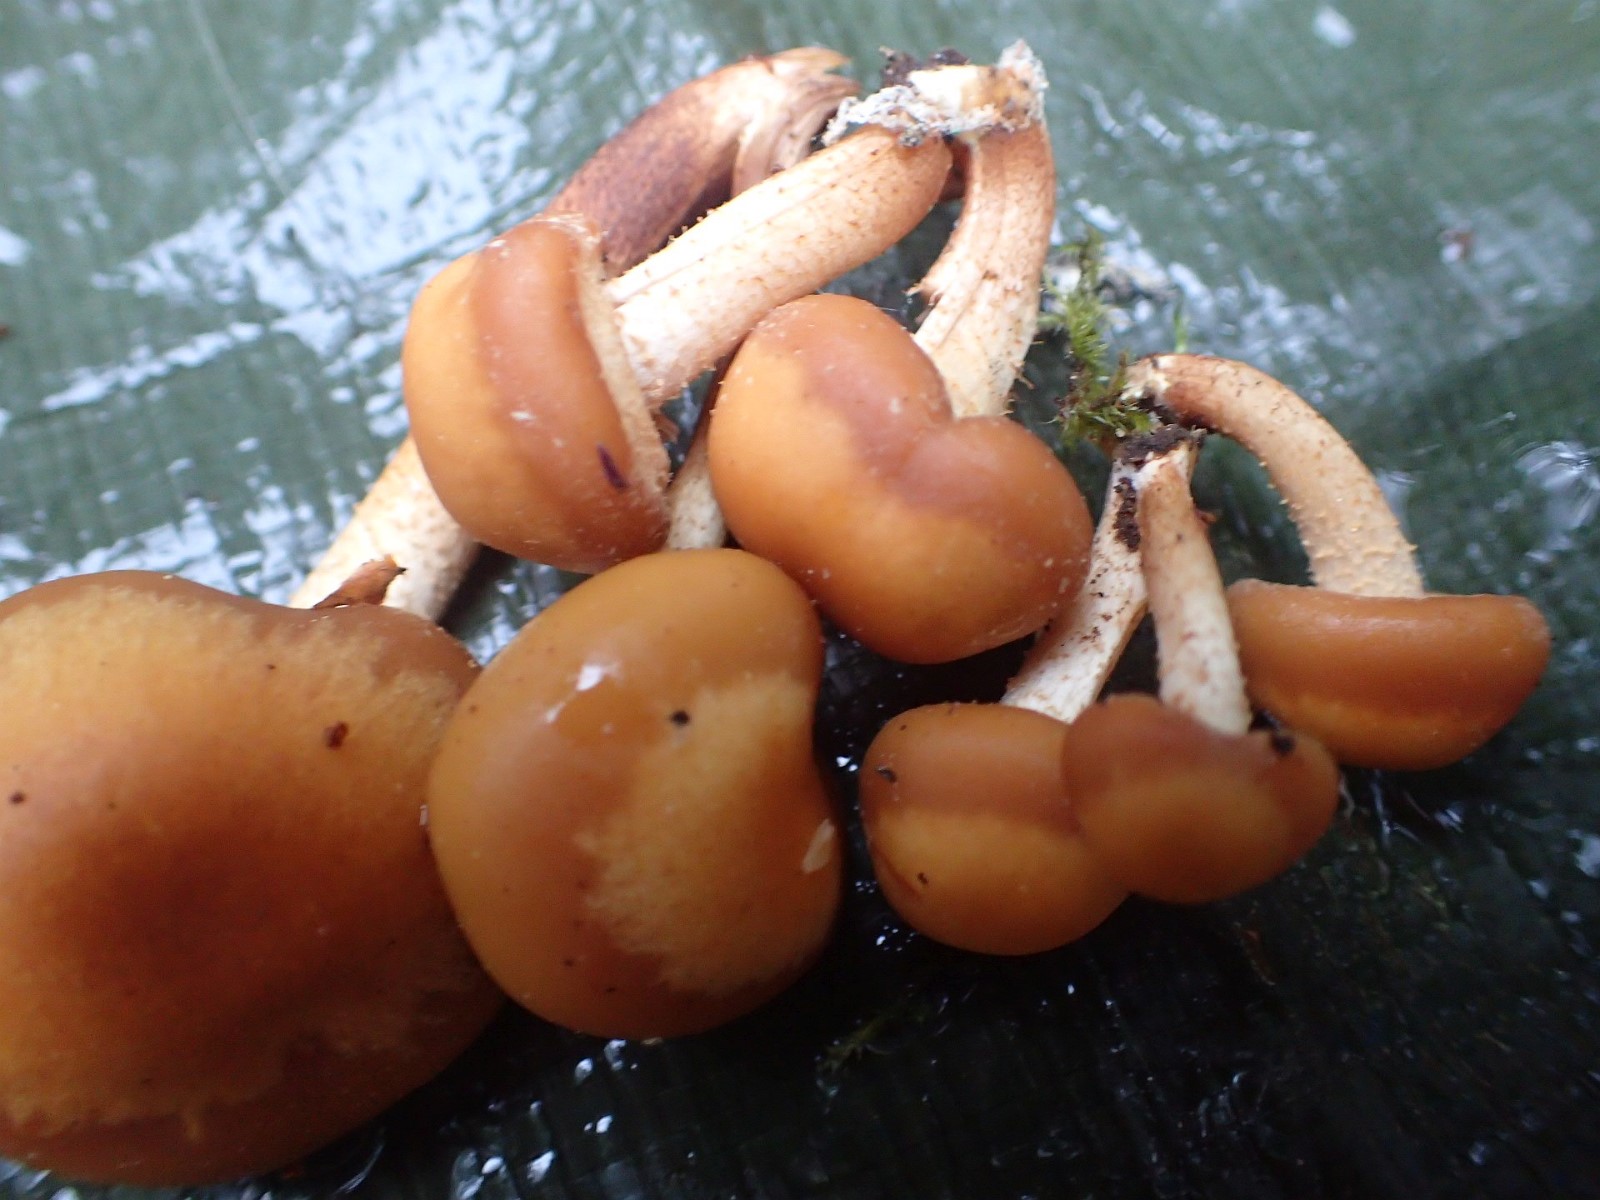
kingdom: Fungi
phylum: Basidiomycota
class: Agaricomycetes
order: Agaricales
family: Strophariaceae
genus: Kuehneromyces
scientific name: Kuehneromyces mutabilis
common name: foranderlig skælhat
